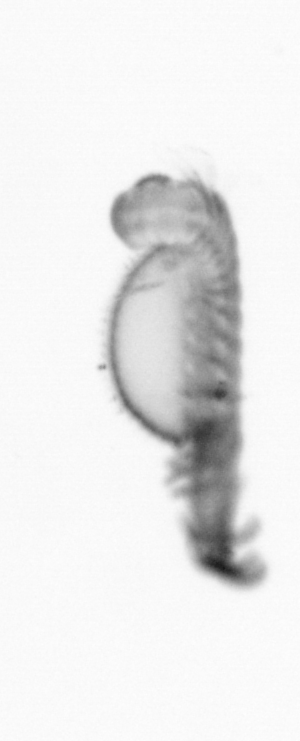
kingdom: Animalia
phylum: Annelida
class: Polychaeta
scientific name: Polychaeta
